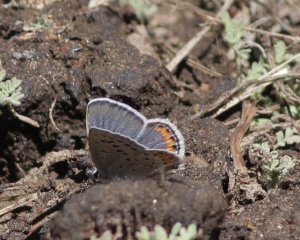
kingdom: Animalia
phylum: Arthropoda
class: Insecta
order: Lepidoptera
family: Lycaenidae
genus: Plebejus
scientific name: Plebejus acmon
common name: Acmon Blue
